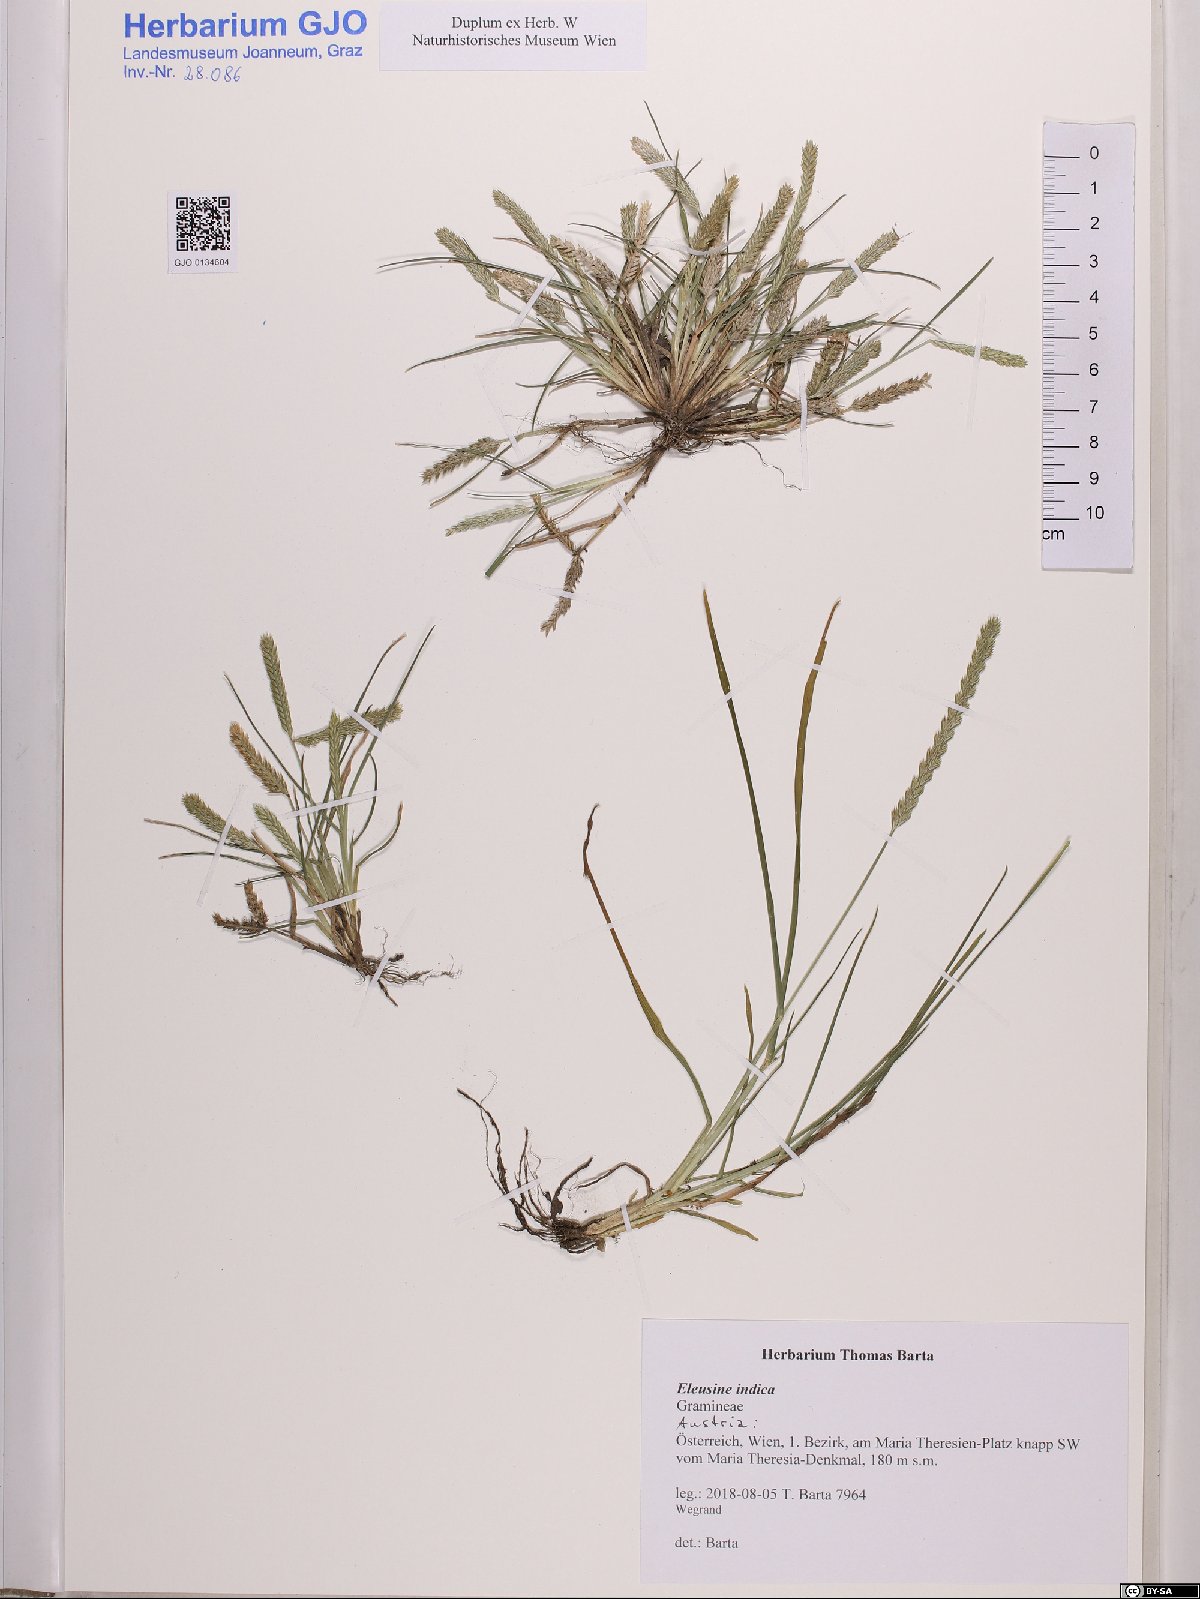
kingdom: Plantae
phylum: Tracheophyta
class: Liliopsida
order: Poales
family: Poaceae
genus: Eleusine
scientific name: Eleusine indica
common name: Yard-grass
